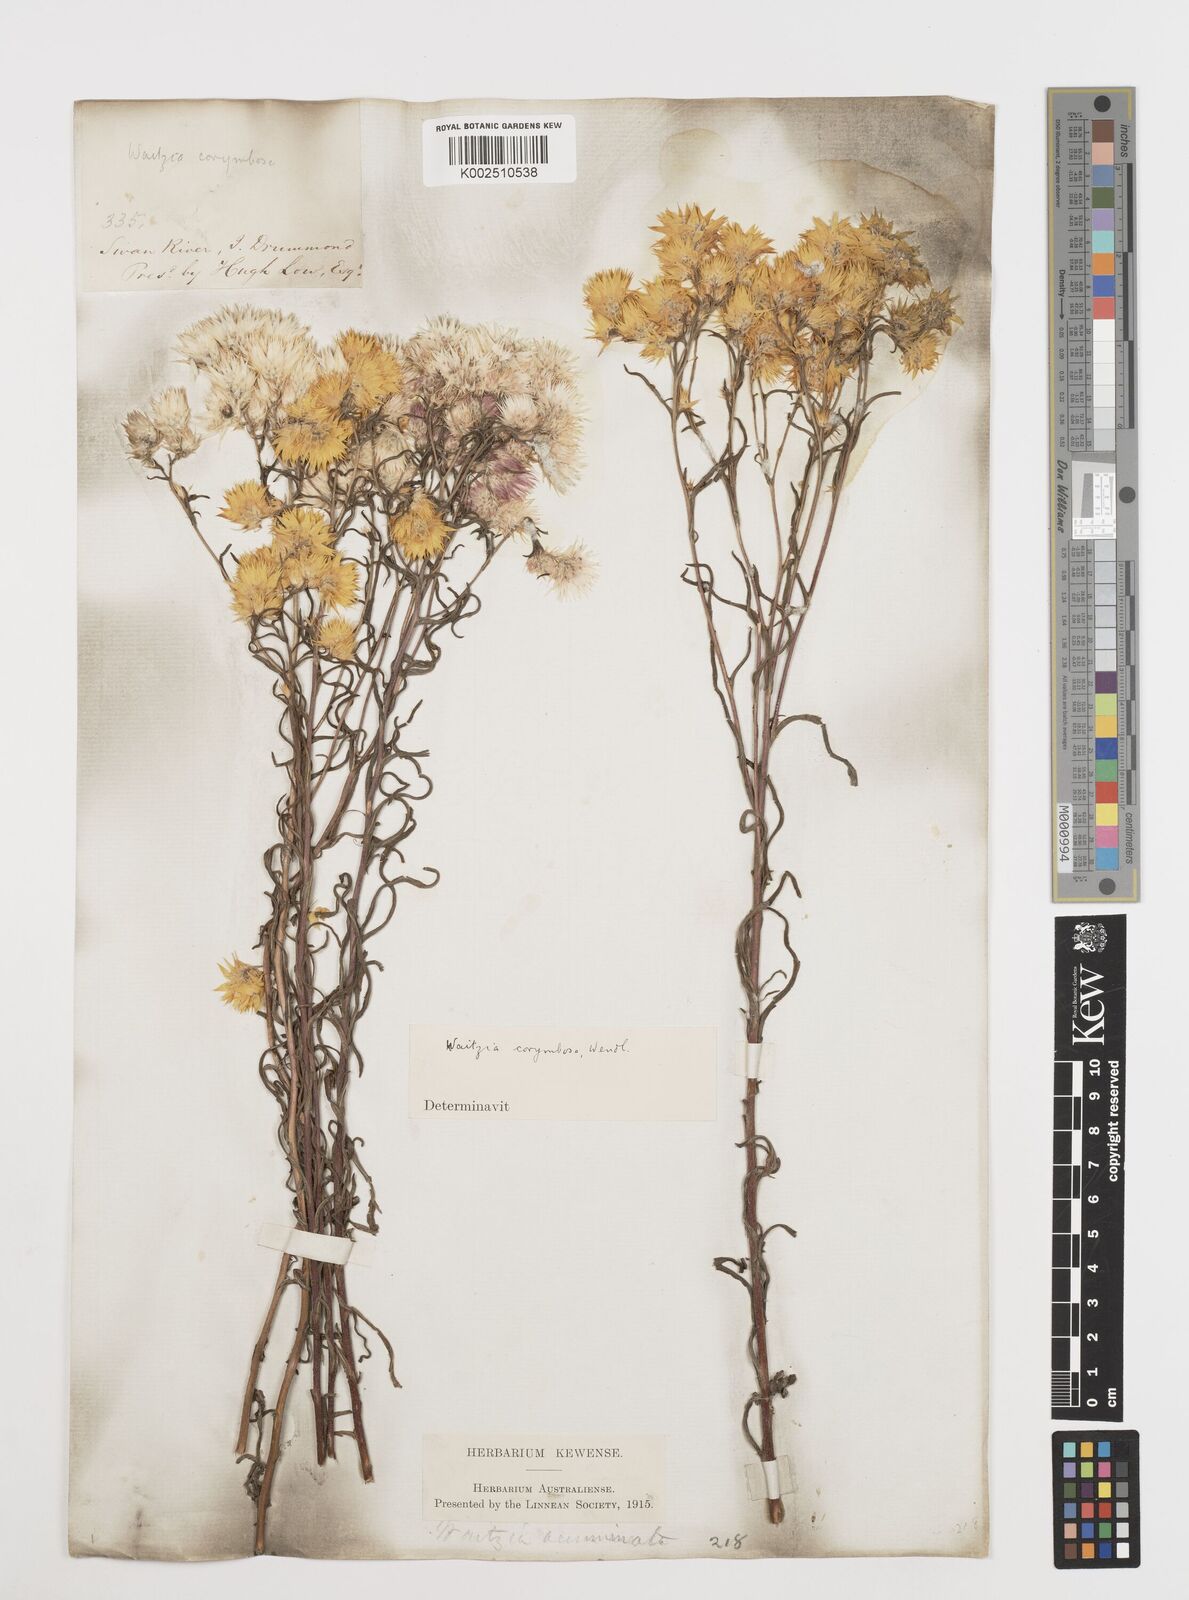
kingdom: Plantae
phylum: Tracheophyta
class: Magnoliopsida
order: Asterales
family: Asteraceae
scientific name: Asteraceae
